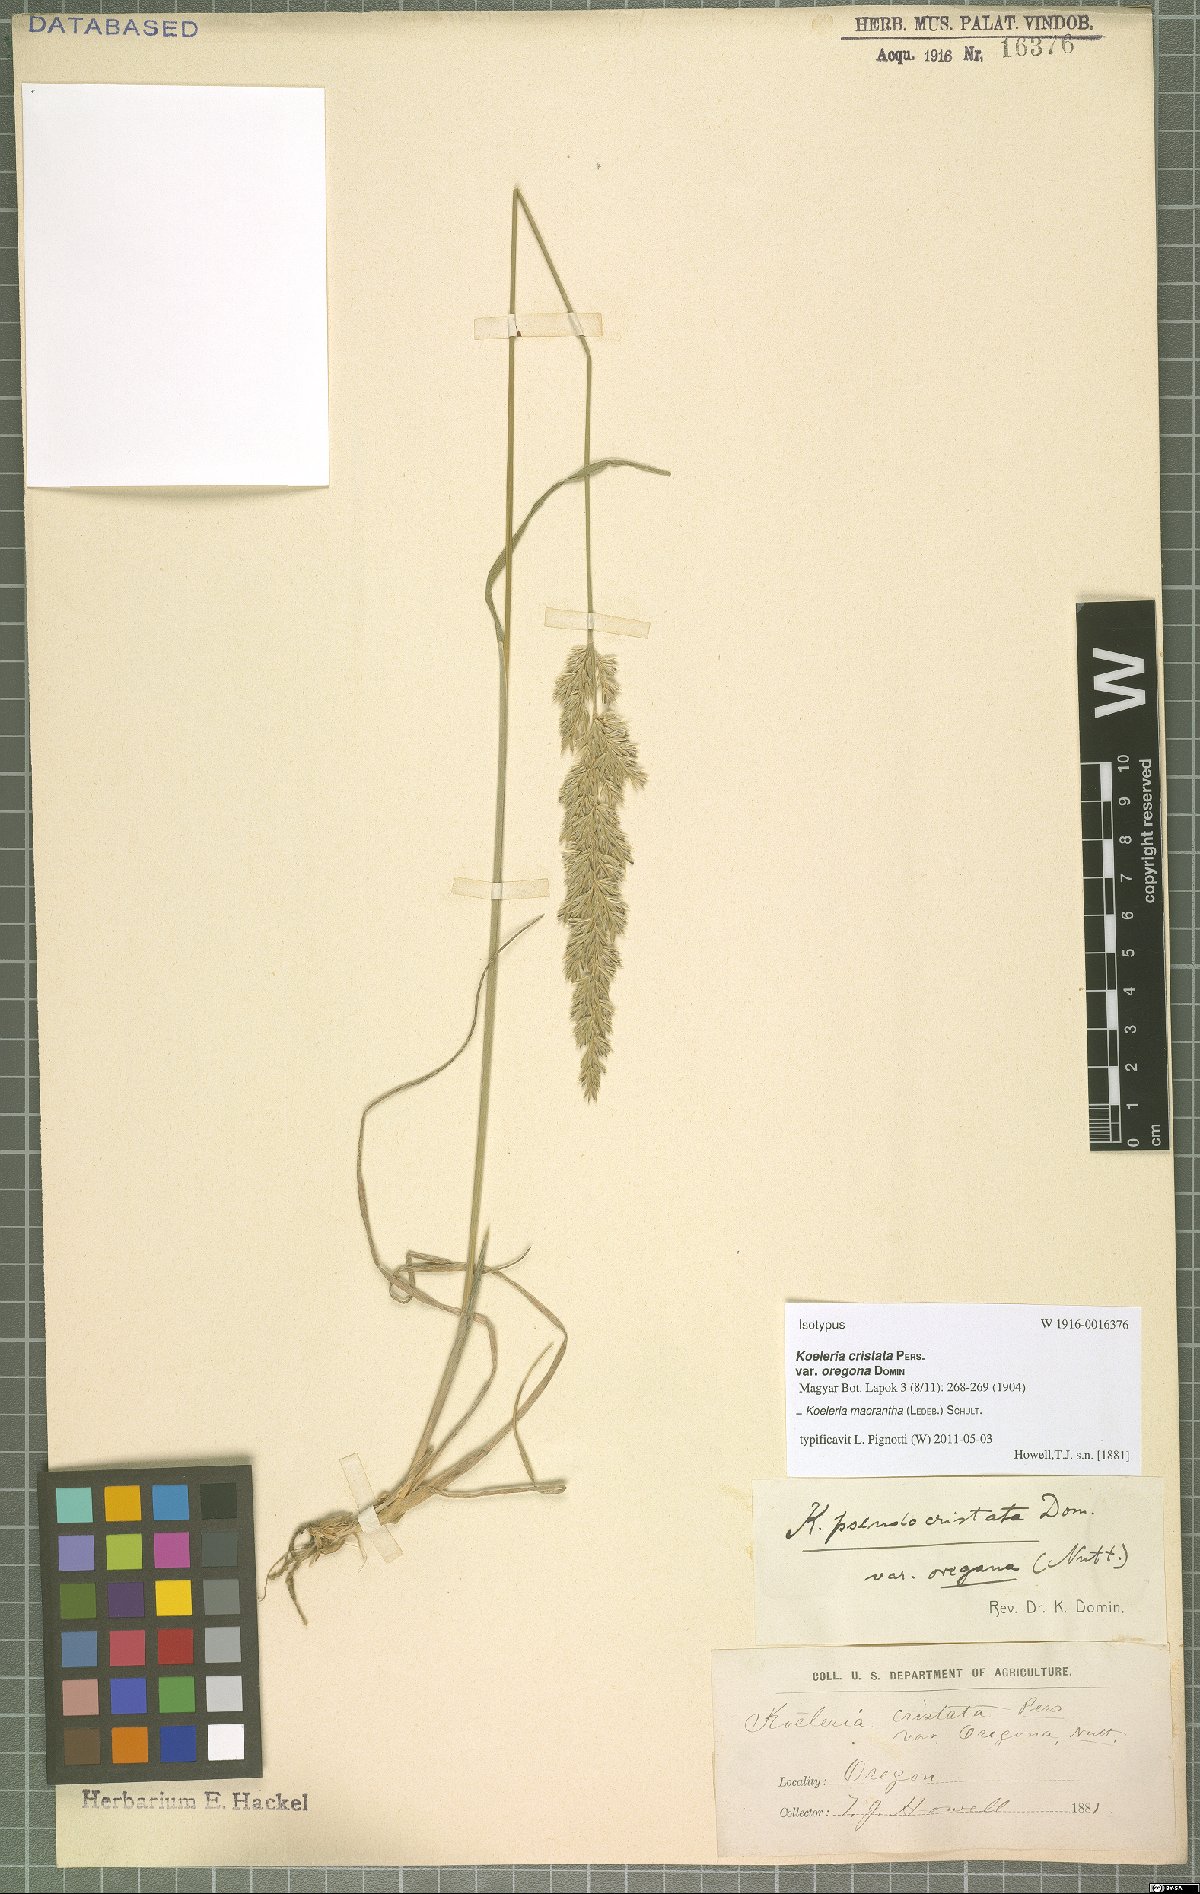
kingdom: Plantae
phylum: Tracheophyta
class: Liliopsida
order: Poales
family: Poaceae
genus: Koeleria
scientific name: Koeleria macrantha
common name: Crested hair-grass
